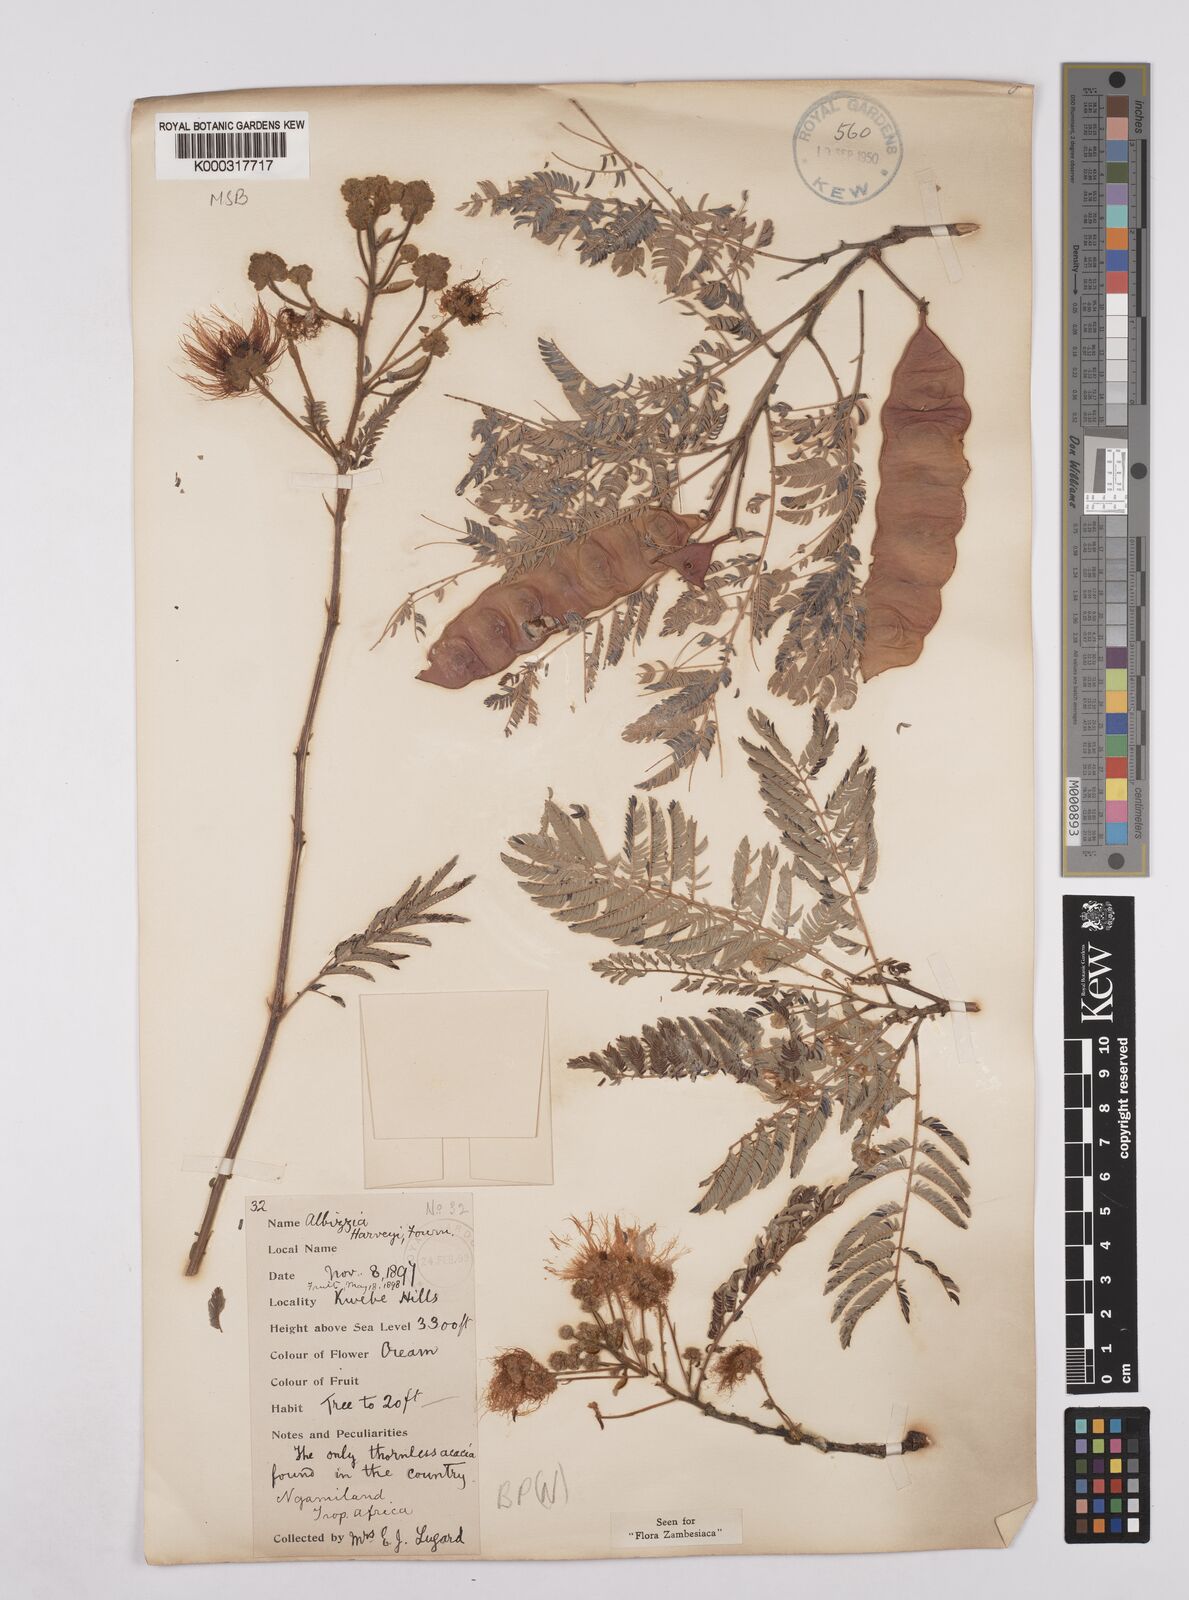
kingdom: Plantae
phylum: Tracheophyta
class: Magnoliopsida
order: Fabales
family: Fabaceae
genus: Albizia
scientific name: Albizia harveyi
